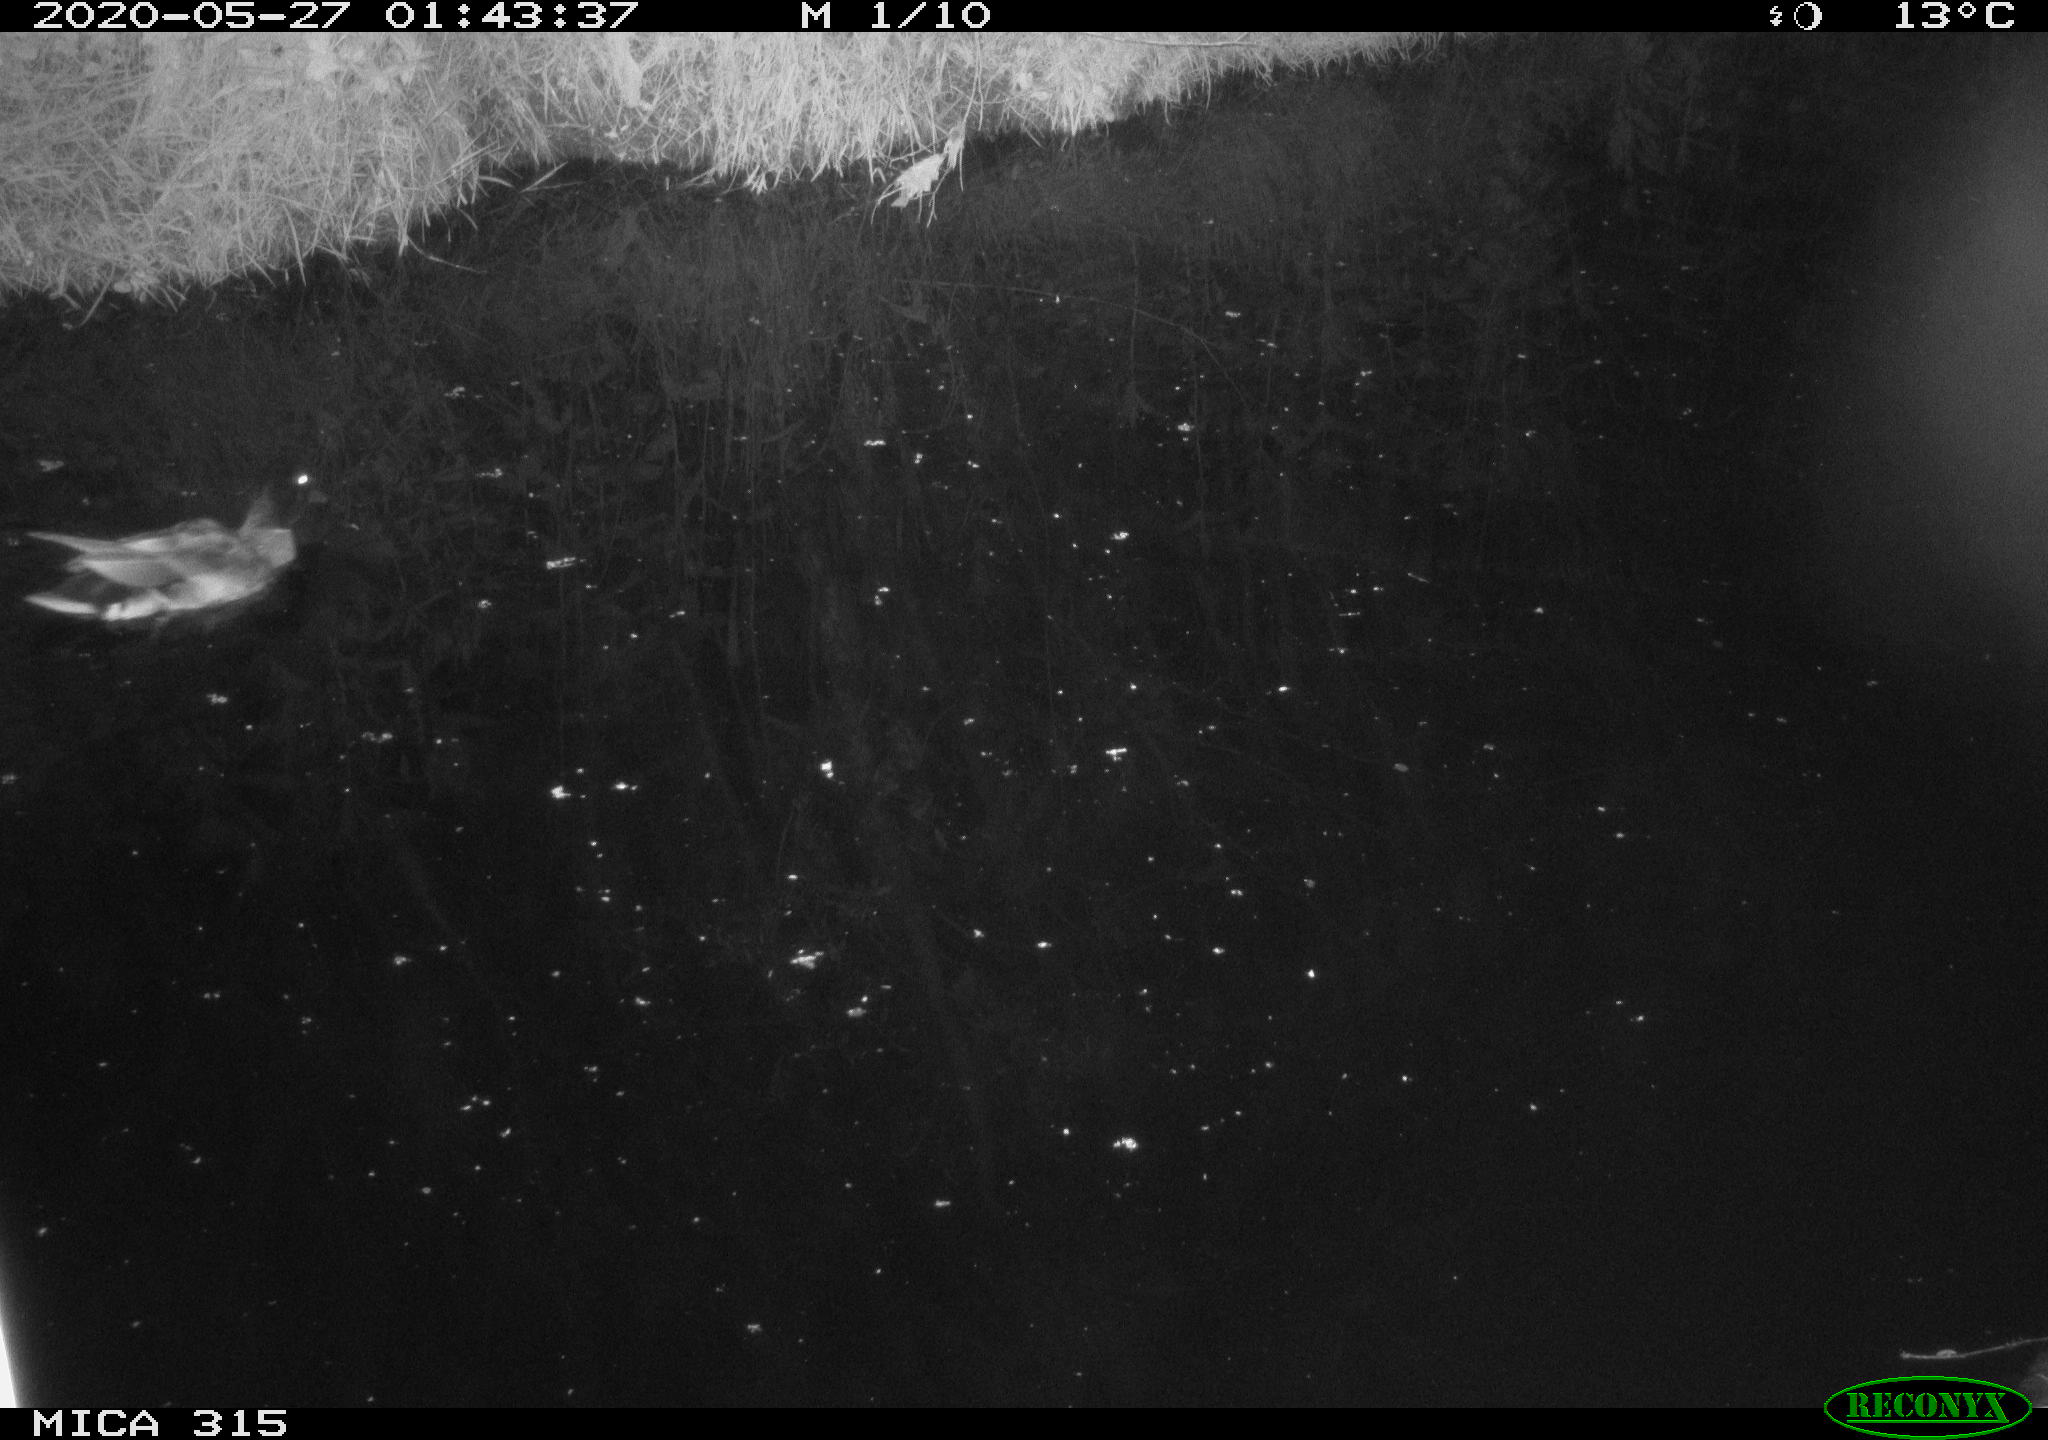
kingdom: Animalia
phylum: Chordata
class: Aves
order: Anseriformes
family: Anatidae
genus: Anas
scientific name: Anas platyrhynchos
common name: Mallard
